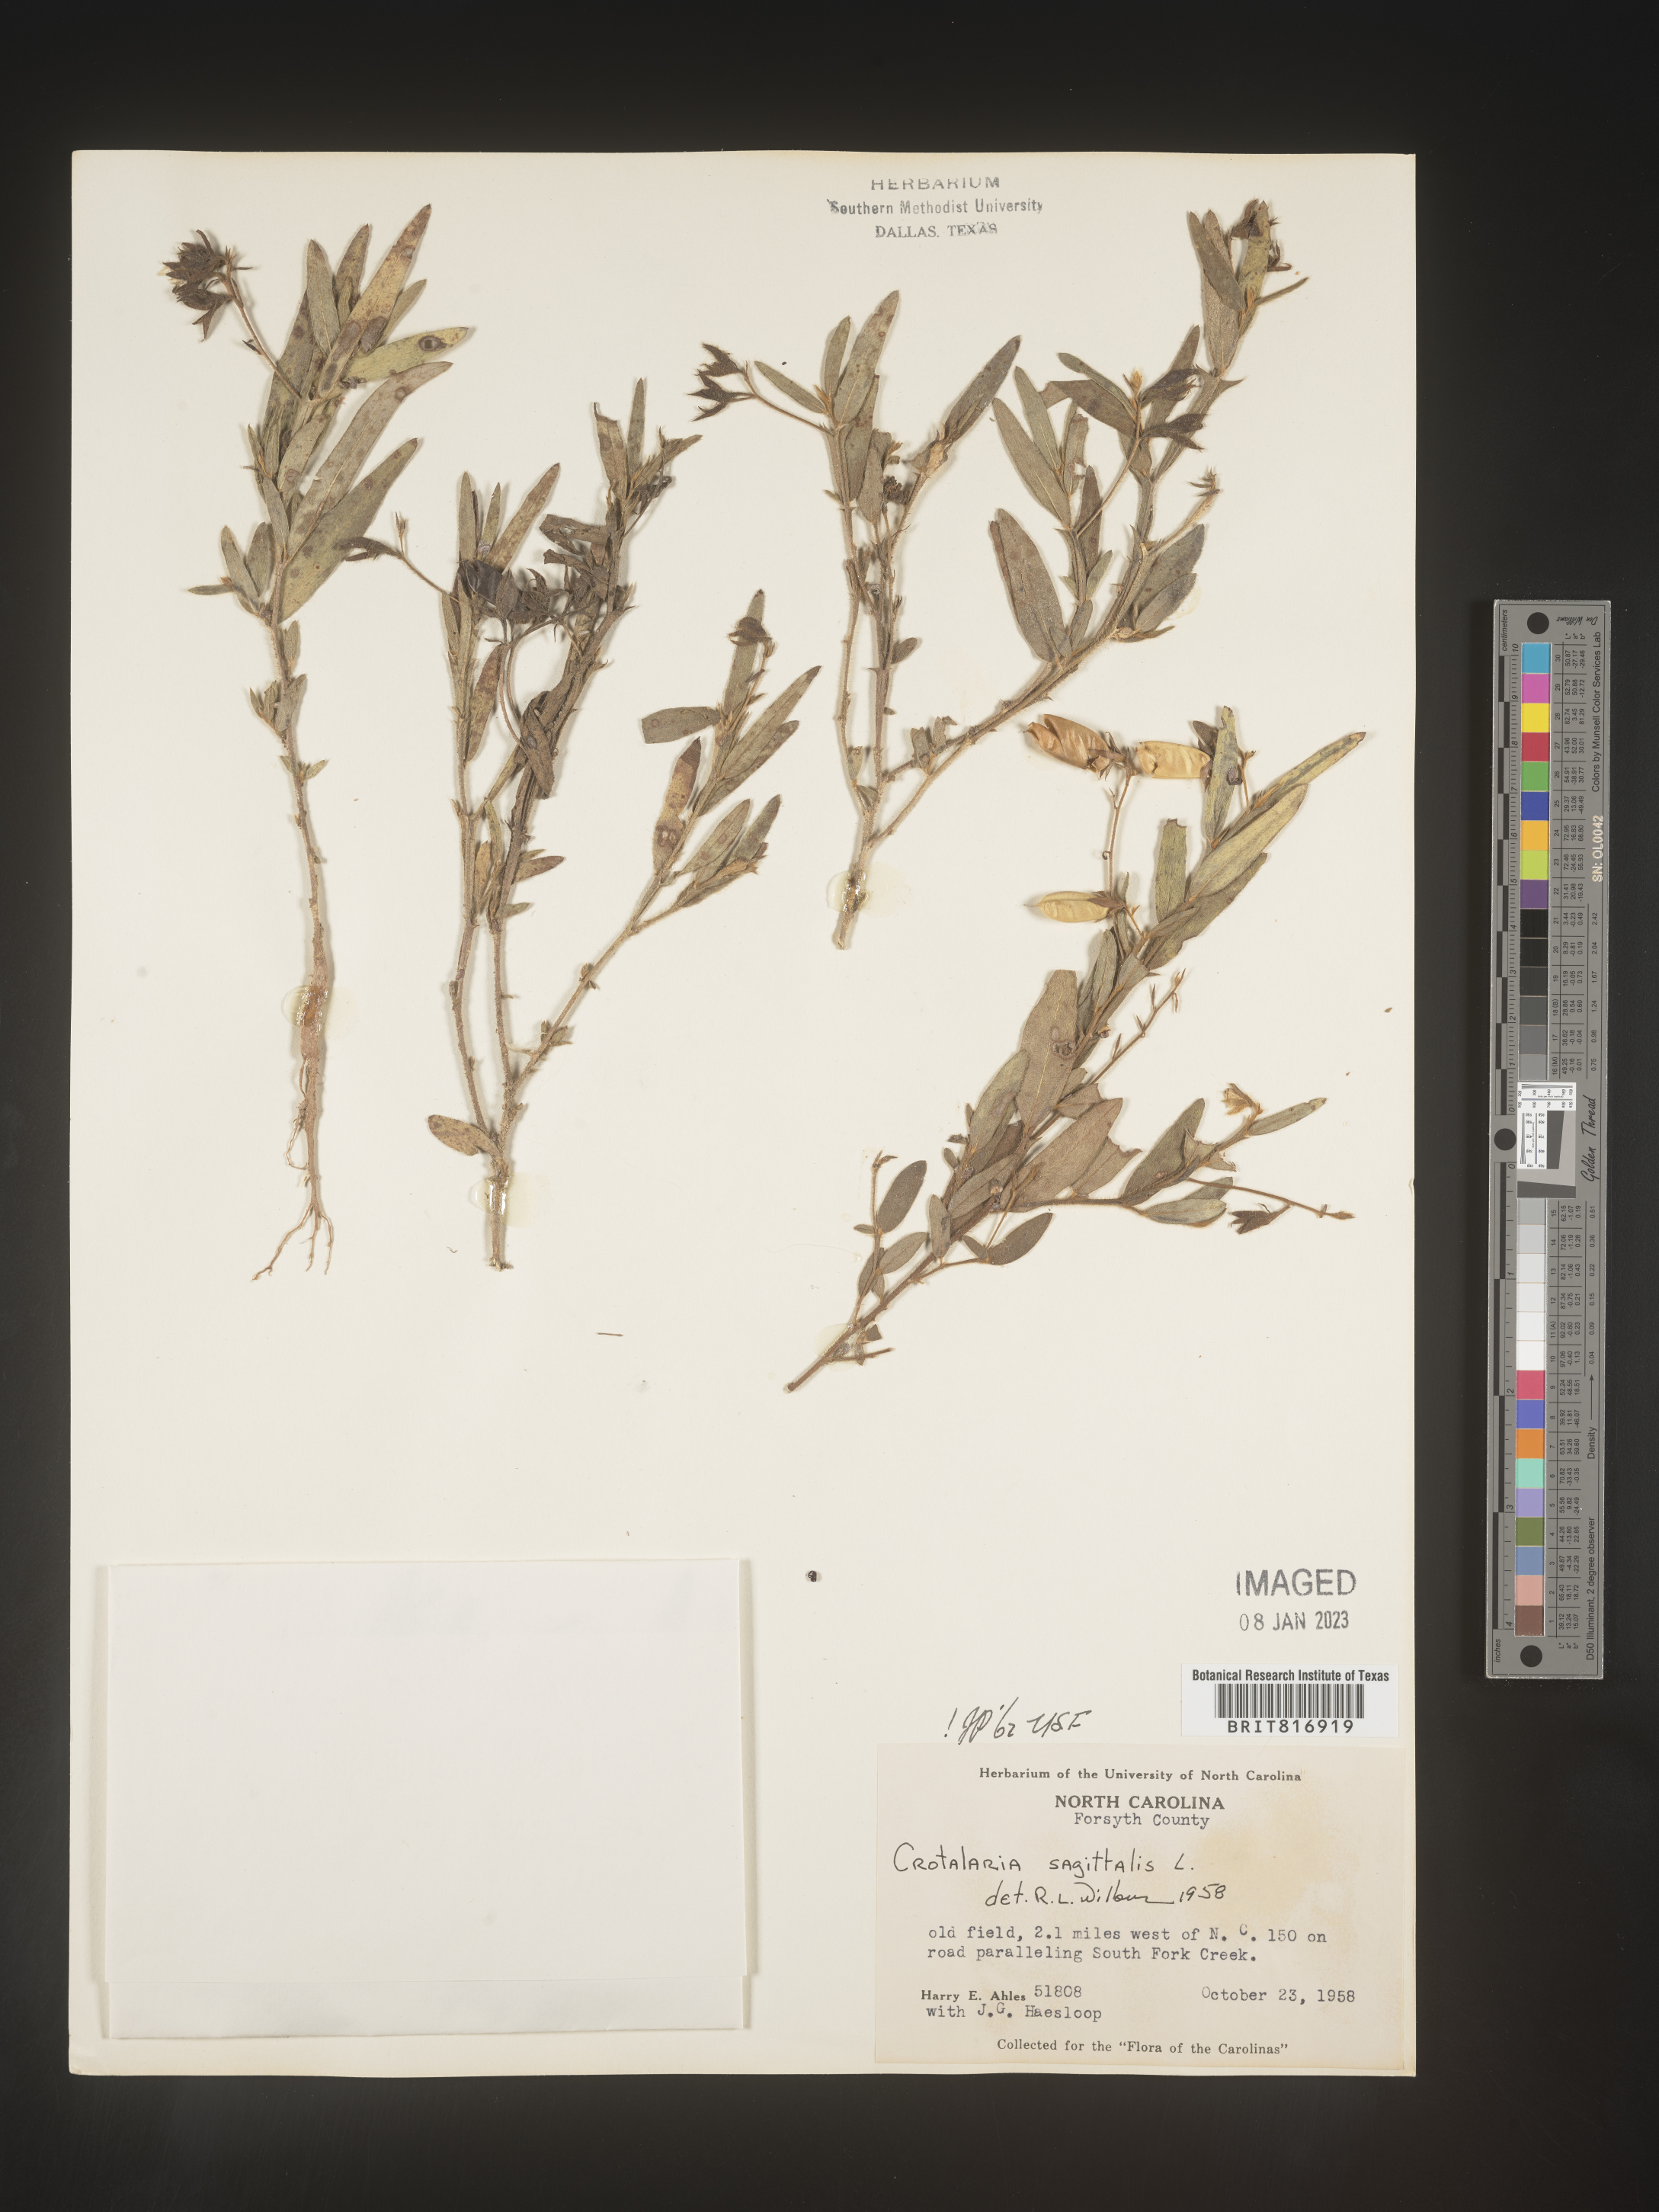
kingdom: Plantae
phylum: Tracheophyta
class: Magnoliopsida
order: Fabales
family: Fabaceae
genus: Crotalaria
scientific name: Crotalaria sagittalis
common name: Arrowhead rattlebox
